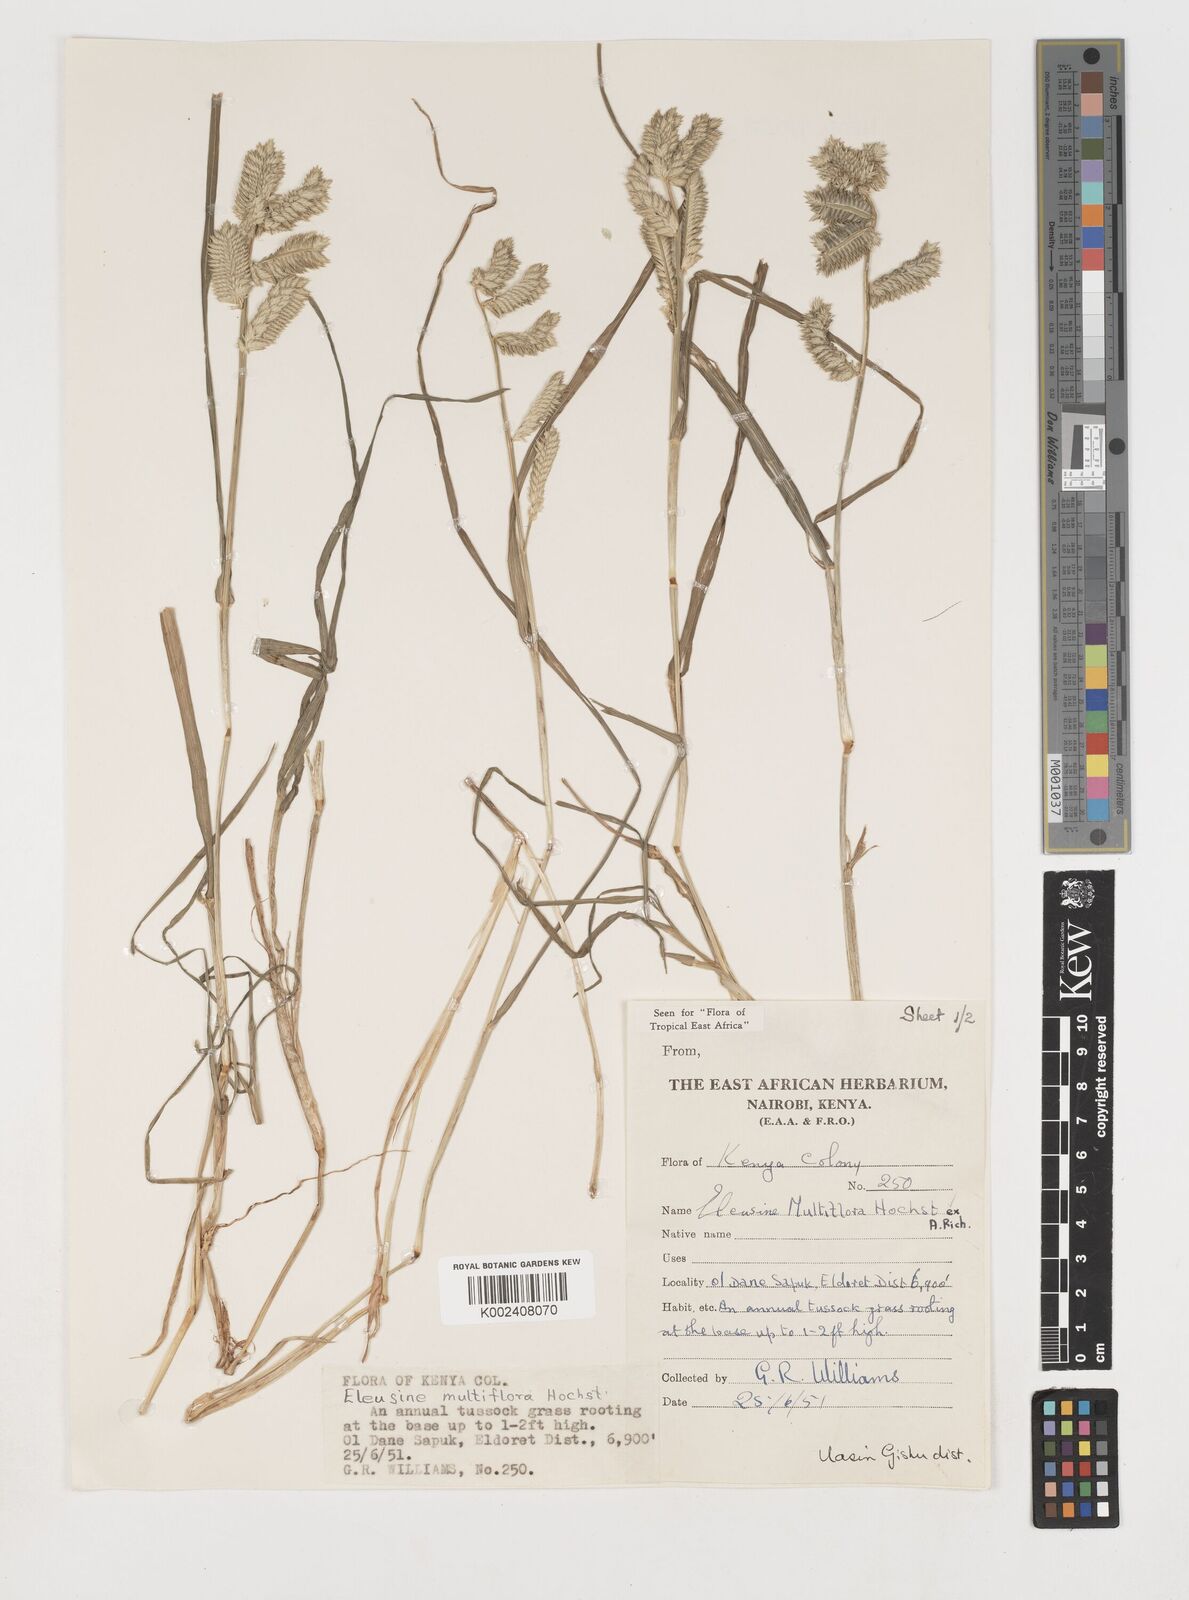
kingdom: Plantae
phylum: Tracheophyta
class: Liliopsida
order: Poales
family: Poaceae
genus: Eleusine
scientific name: Eleusine multiflora
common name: Fat-spiked yard-grass
